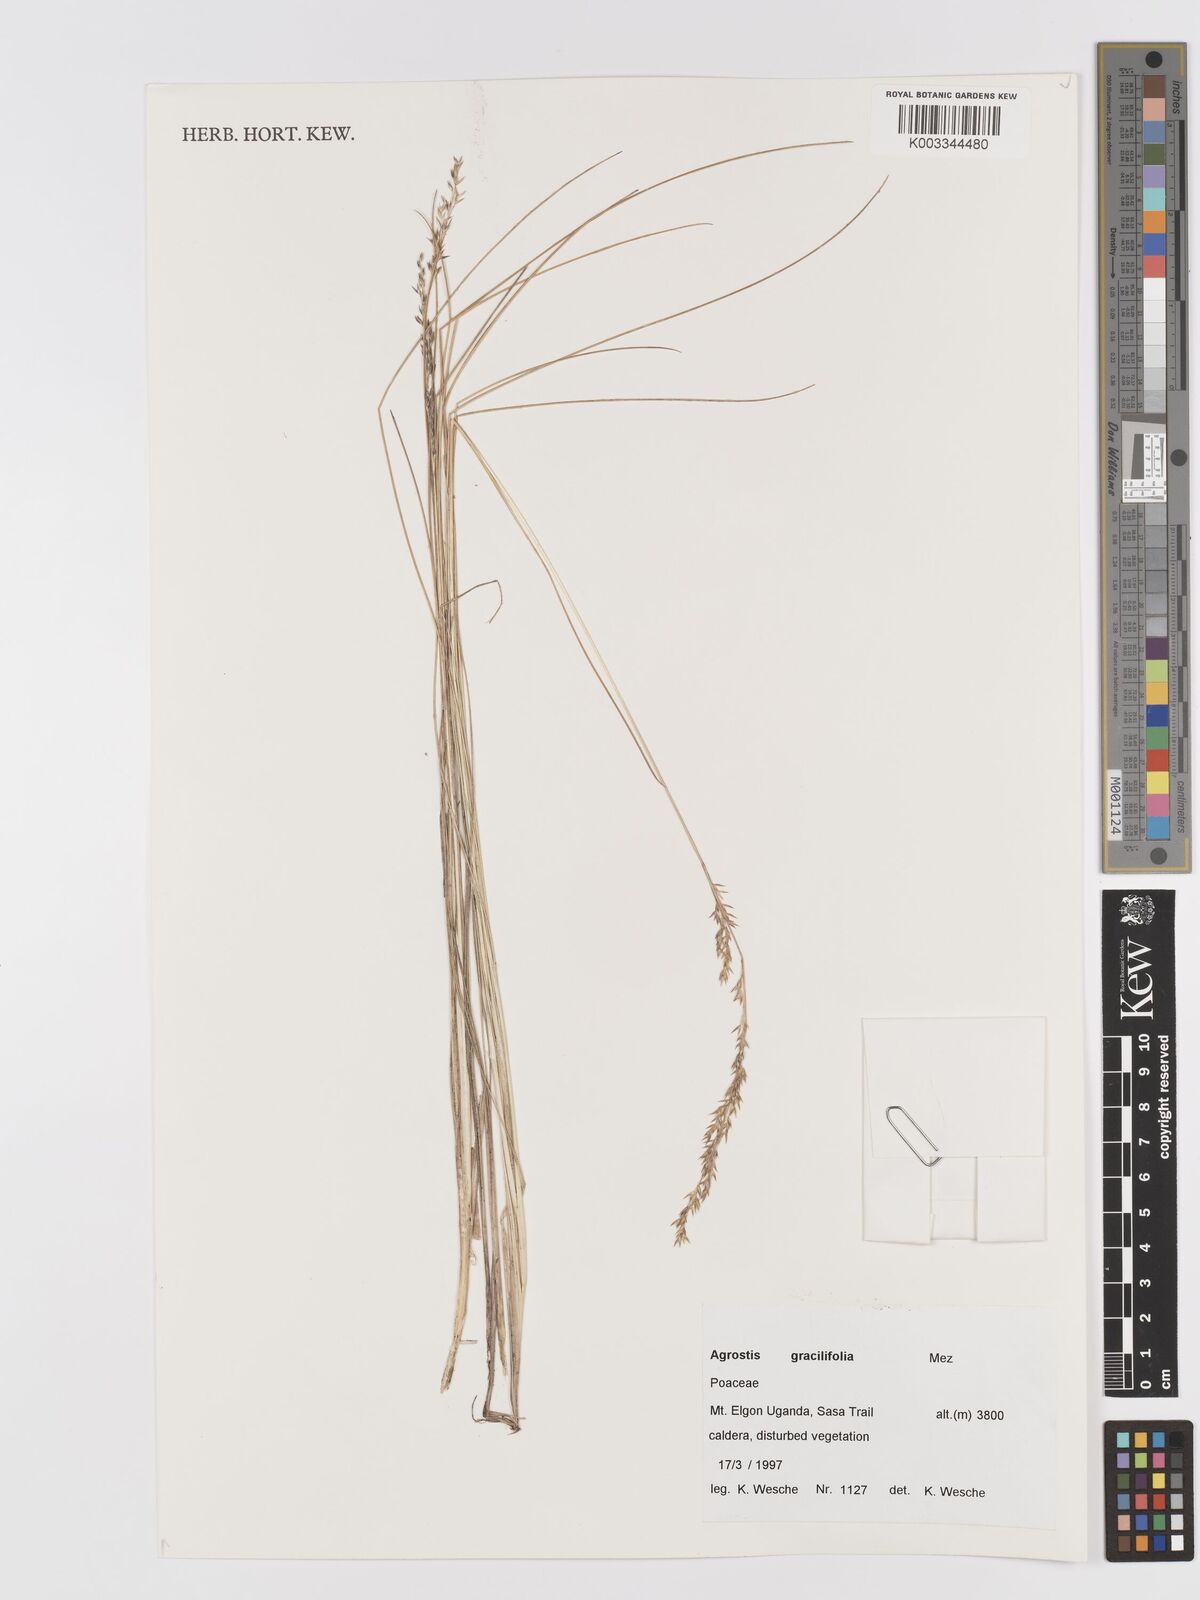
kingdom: Plantae
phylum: Tracheophyta
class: Liliopsida
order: Poales
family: Poaceae
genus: Agrostis
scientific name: Agrostis gracilifolia
